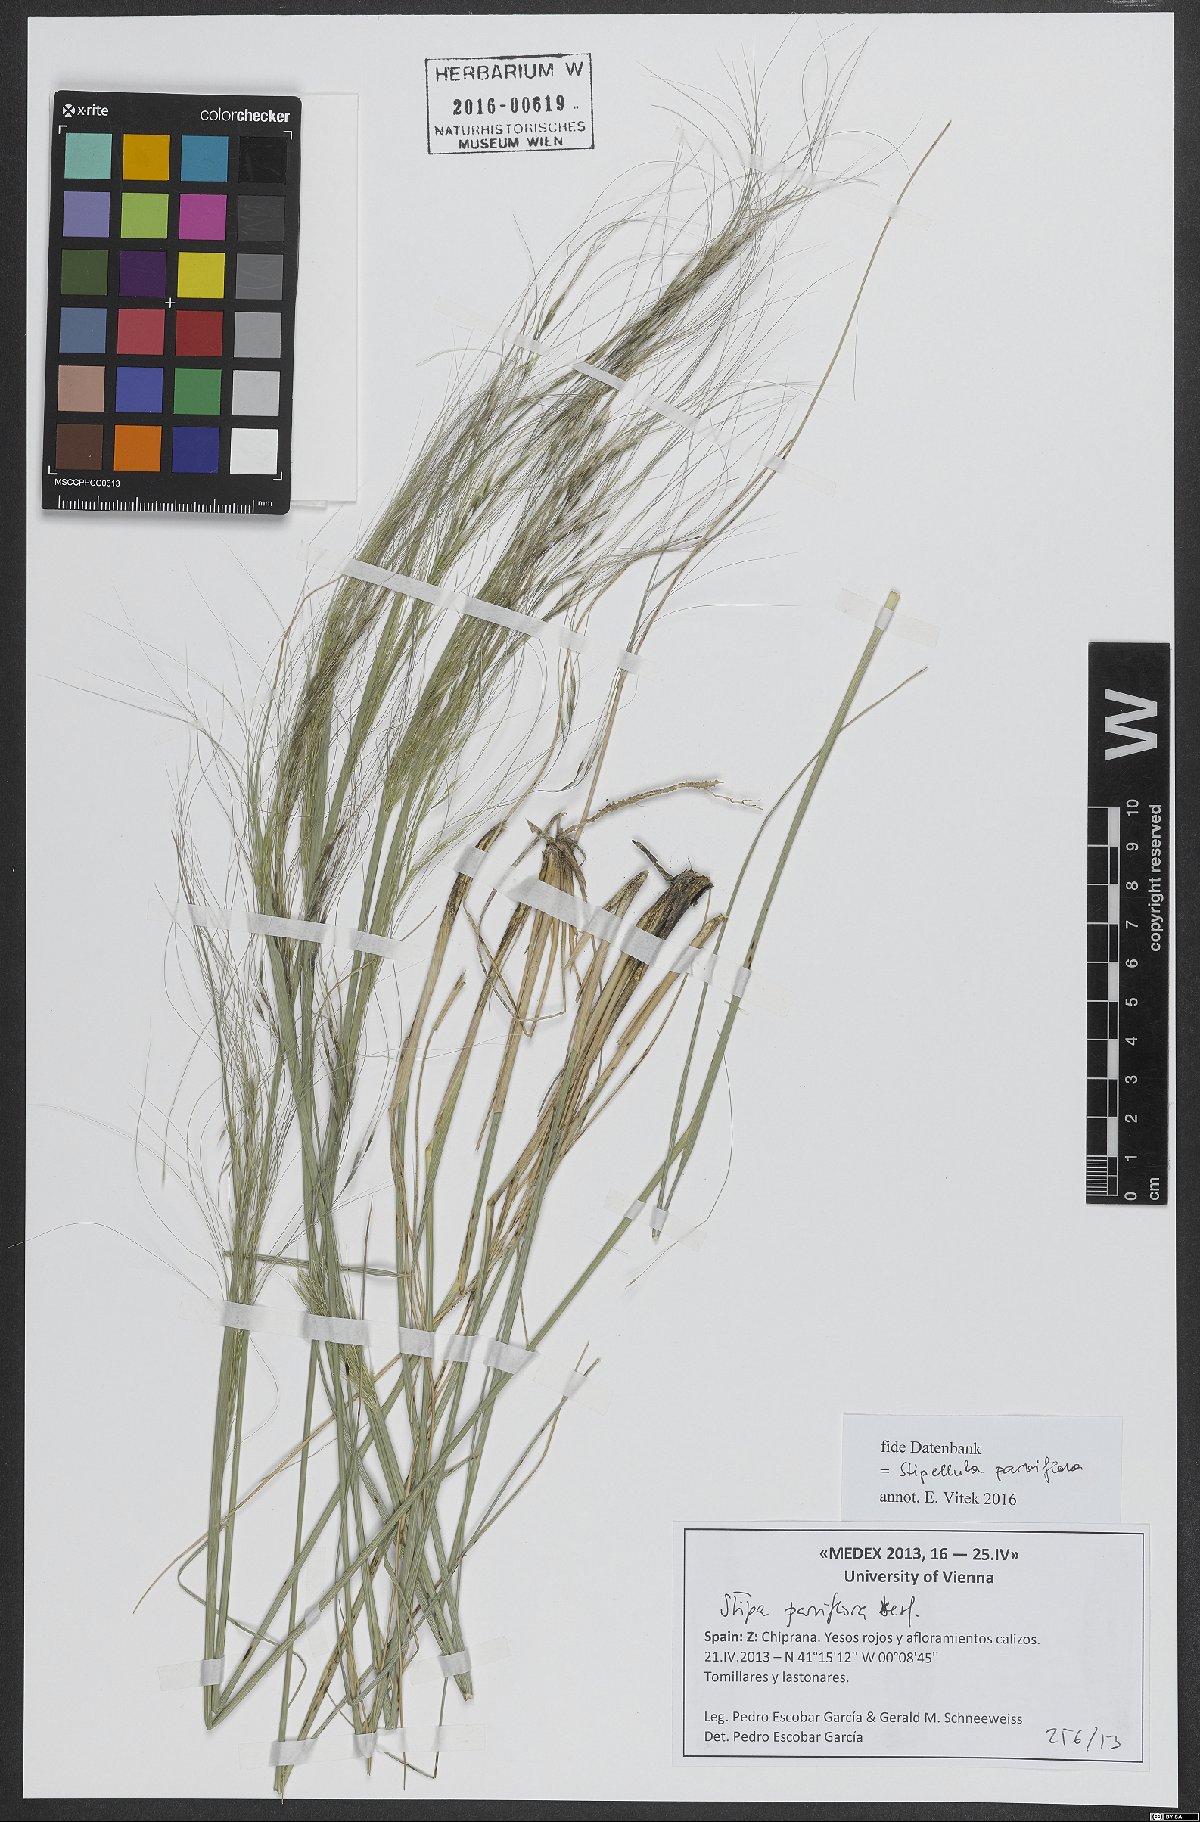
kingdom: Plantae
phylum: Tracheophyta
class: Liliopsida
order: Poales
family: Poaceae
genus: Achnatherum
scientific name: Achnatherum parviflorum
